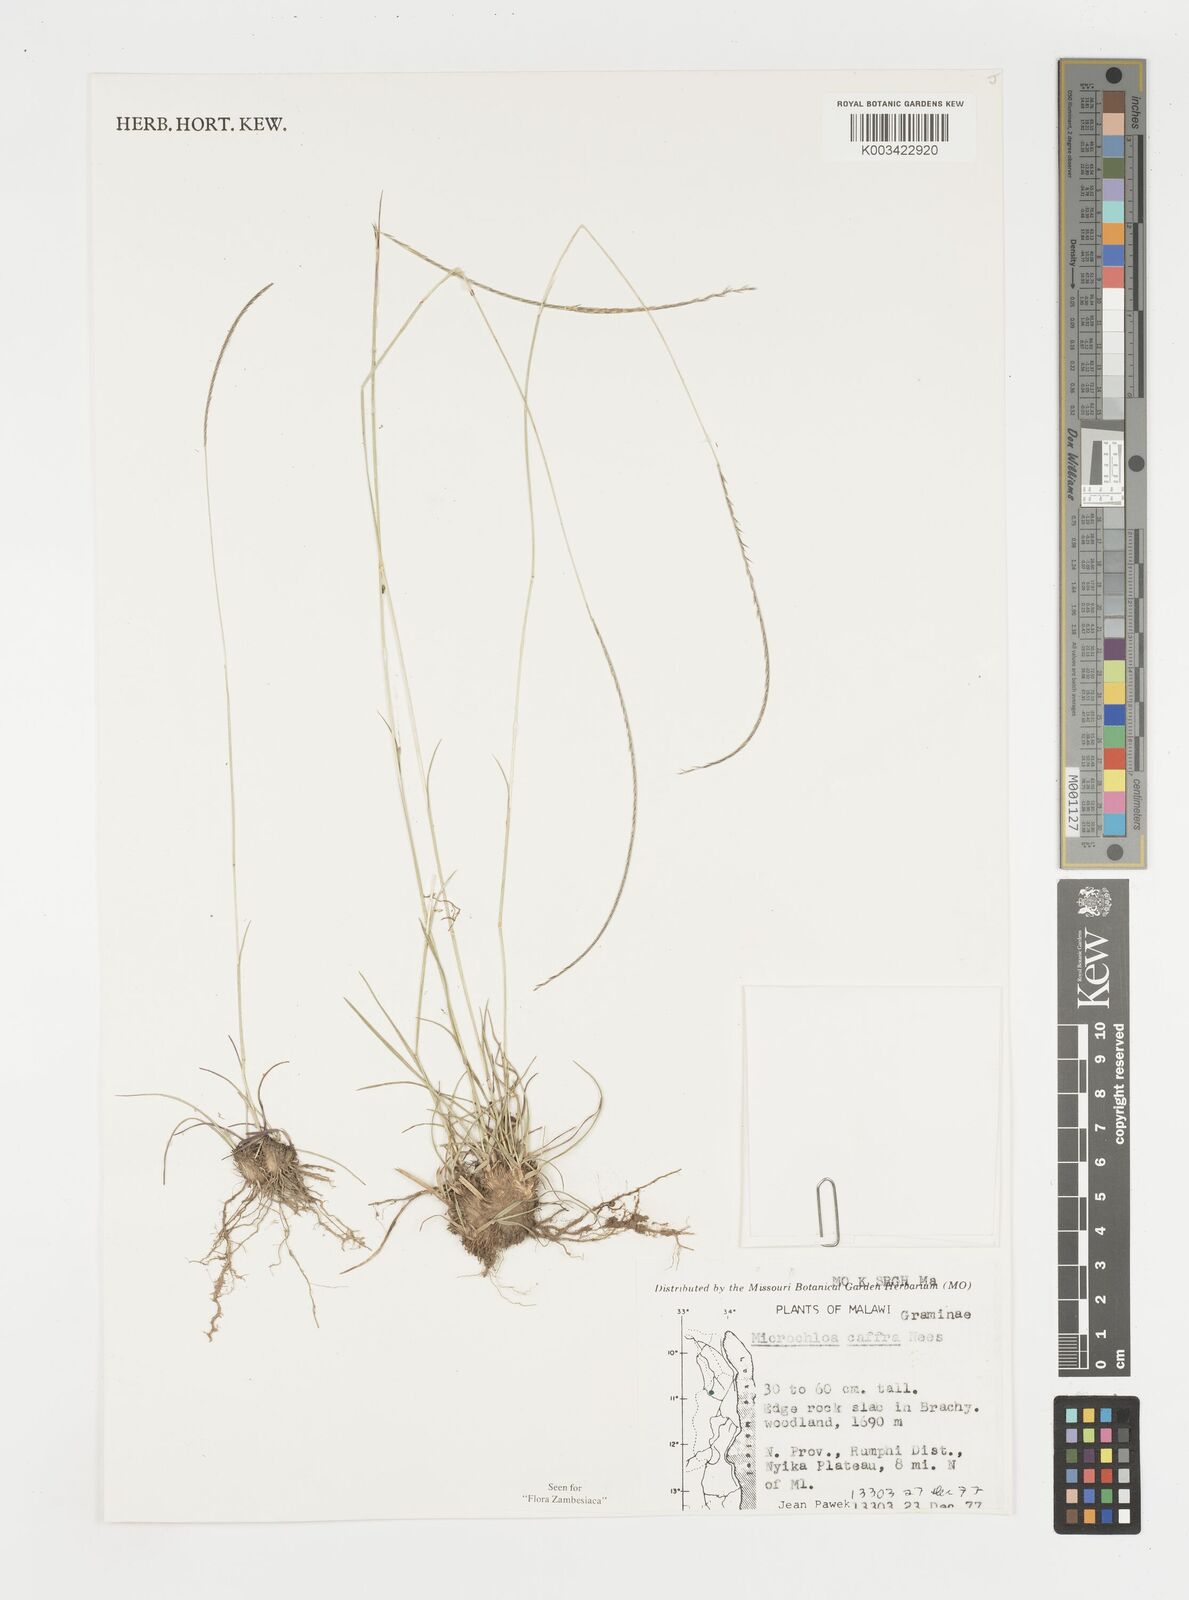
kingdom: Plantae
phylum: Tracheophyta
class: Liliopsida
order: Poales
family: Poaceae
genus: Microchloa
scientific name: Microchloa caffra
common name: Pincushion grass
